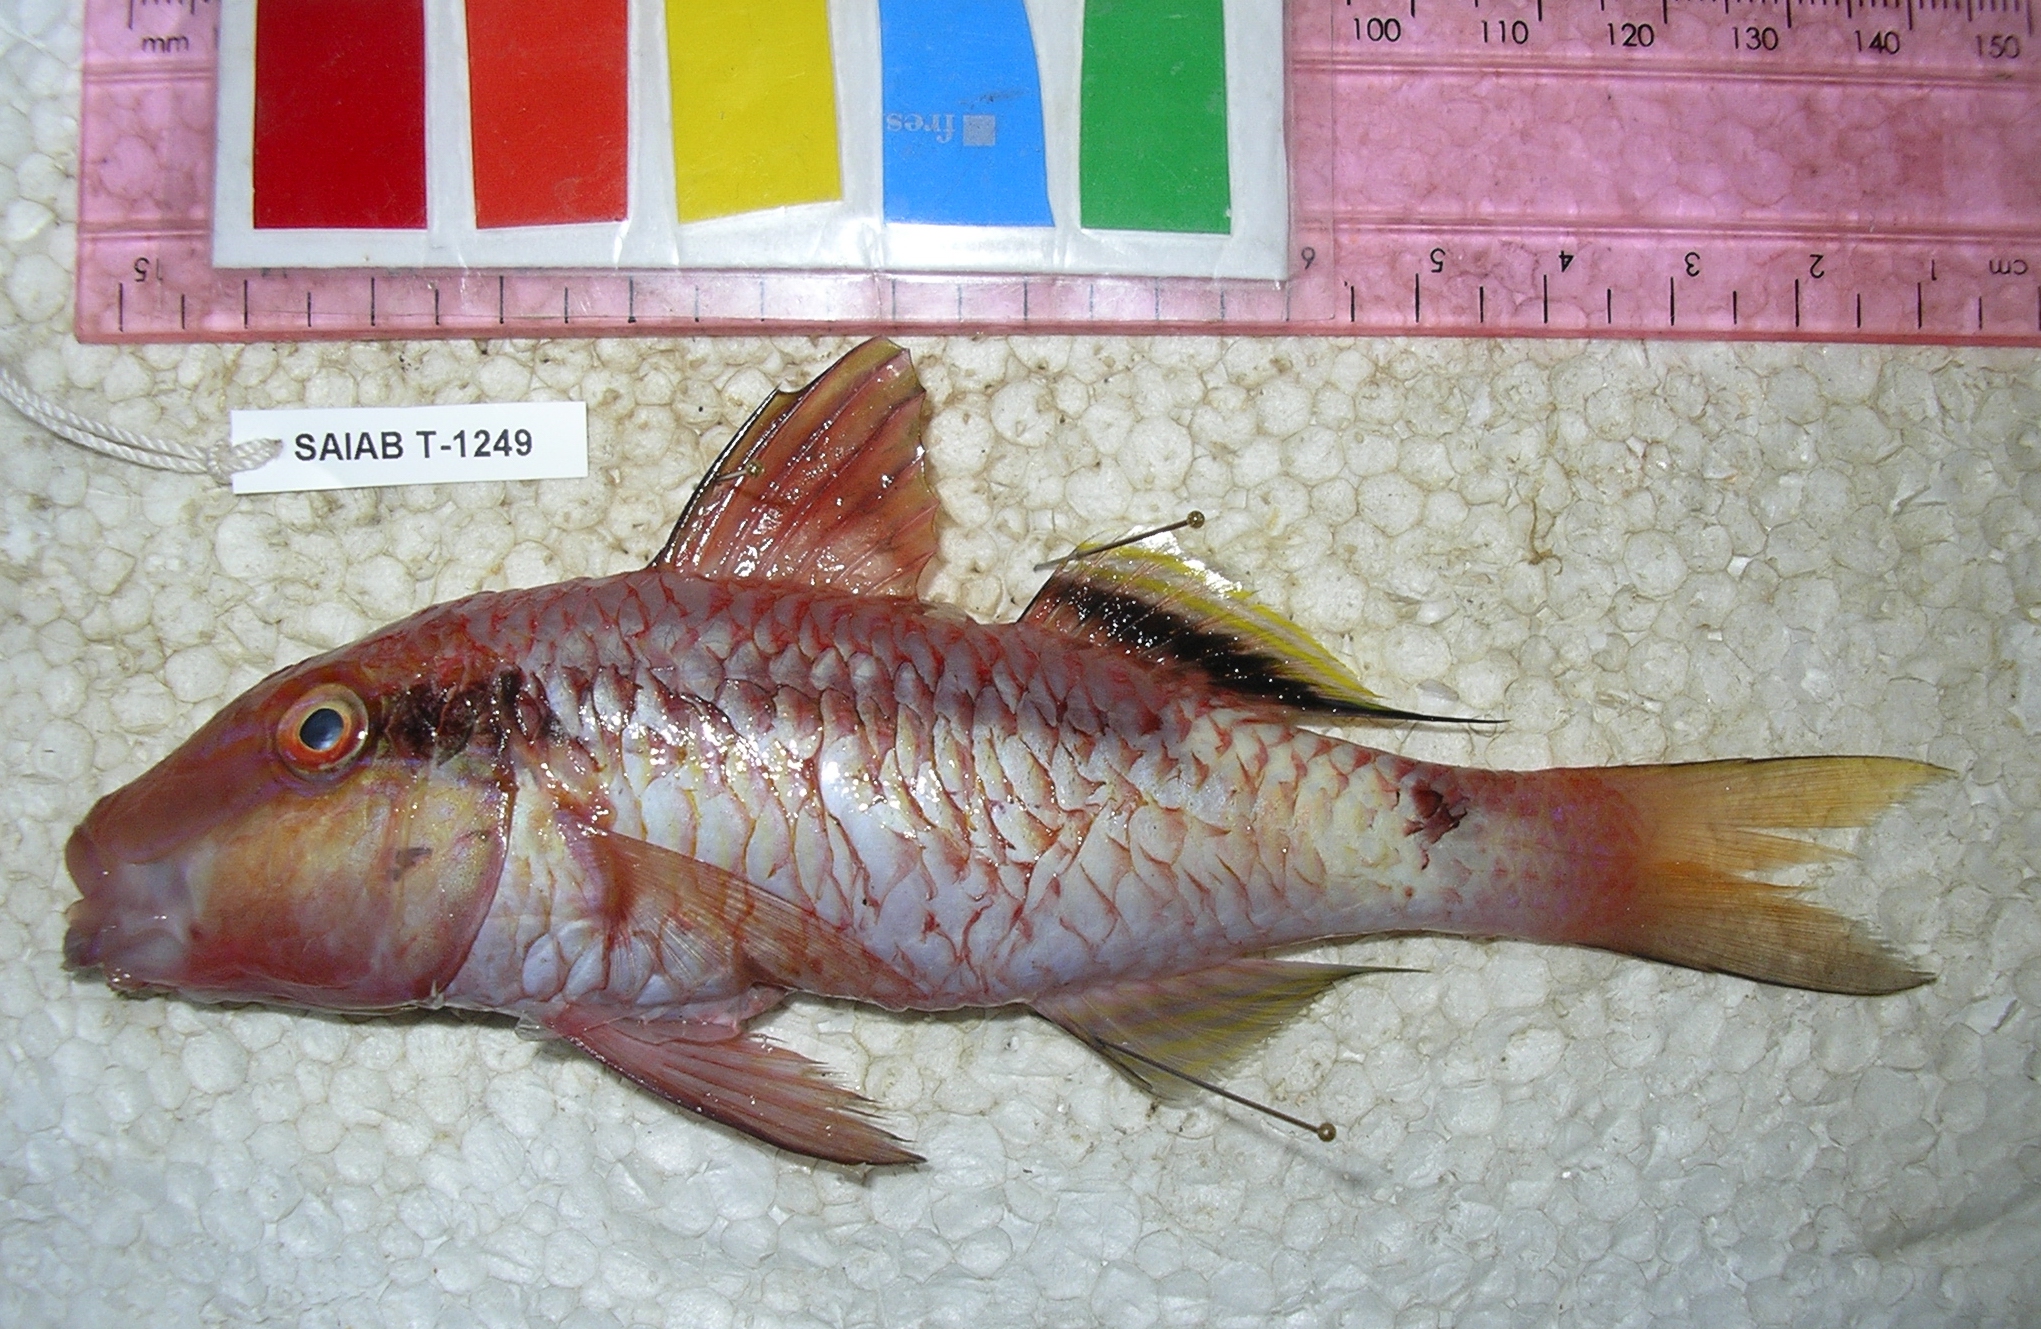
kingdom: Animalia
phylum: Chordata
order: Perciformes
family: Mullidae
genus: Parupeneus
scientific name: Parupeneus macronemus
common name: Long-barbel goatfish
